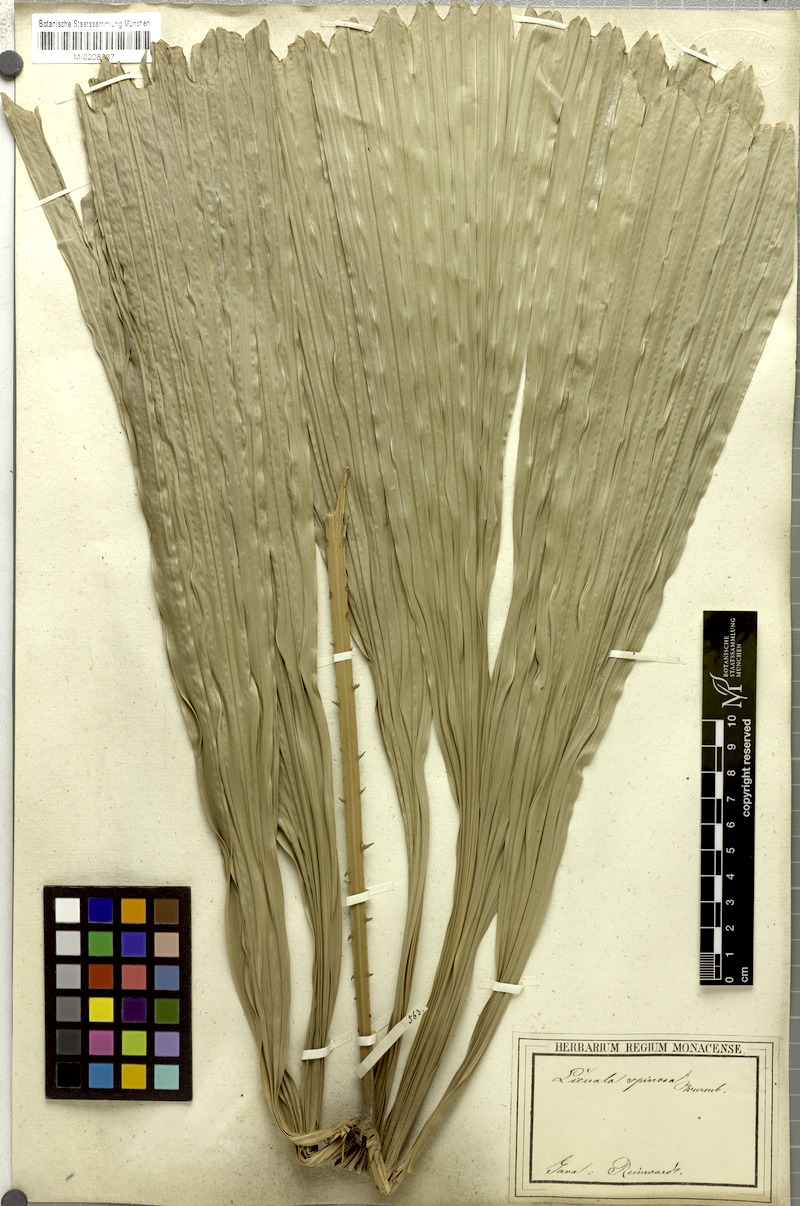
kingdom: Plantae
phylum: Tracheophyta
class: Liliopsida
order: Arecales
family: Arecaceae
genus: Licuala
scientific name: Licuala spinosa
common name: Mangrove fan palm
